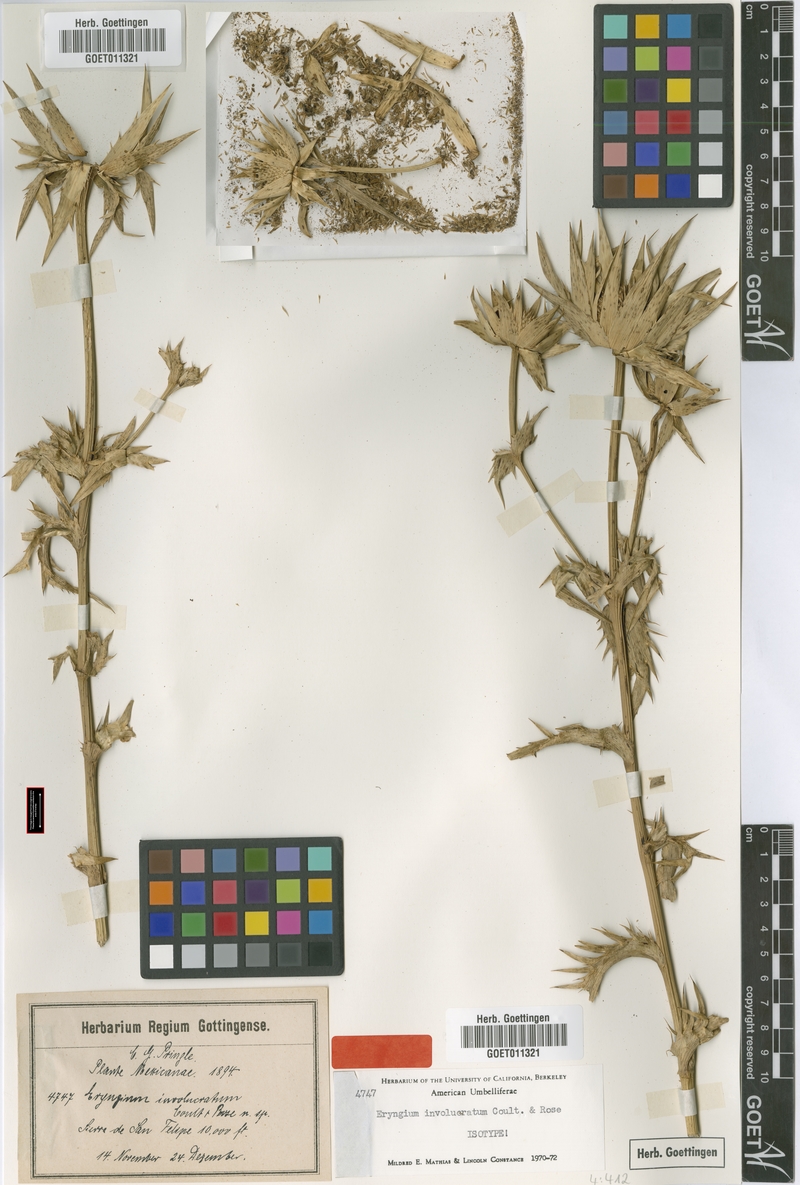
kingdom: Plantae
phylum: Tracheophyta
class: Magnoliopsida
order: Apiales
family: Apiaceae
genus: Eryngium
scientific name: Eryngium monocephalum
